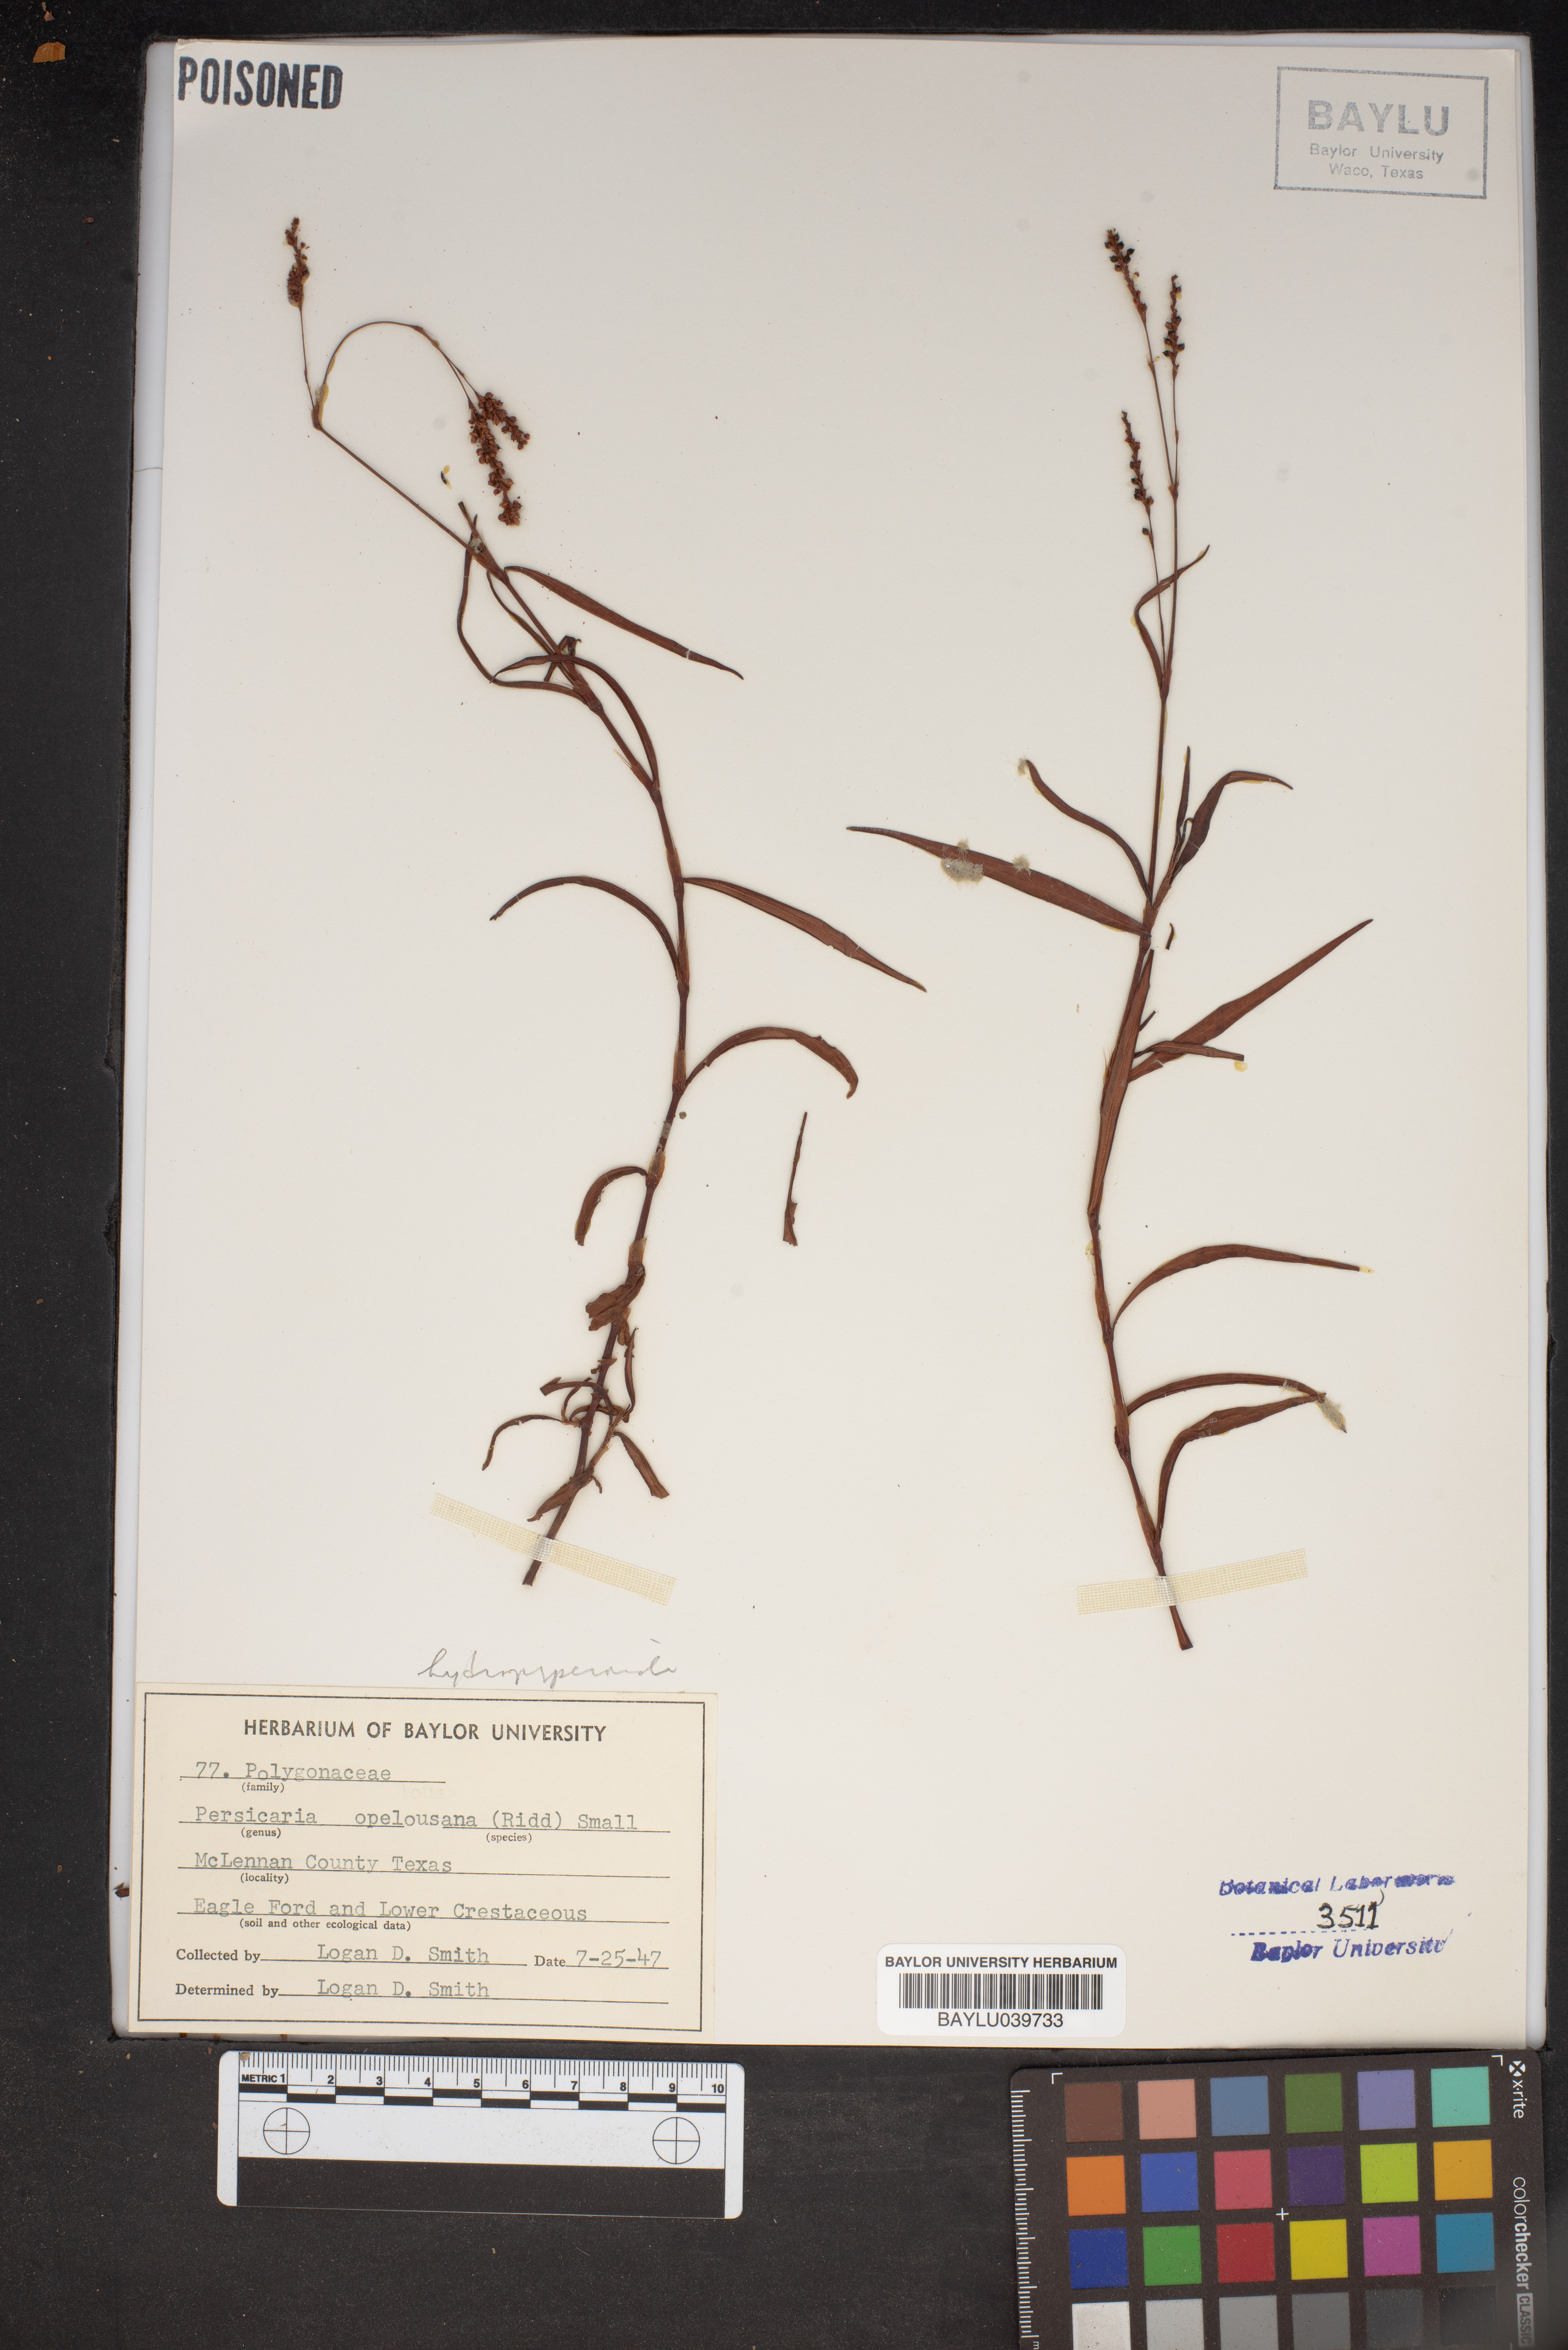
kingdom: Plantae
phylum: Tracheophyta
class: Magnoliopsida
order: Caryophyllales
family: Polygonaceae
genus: Persicaria
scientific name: Persicaria hydropiperoides
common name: Swamp smartweed
